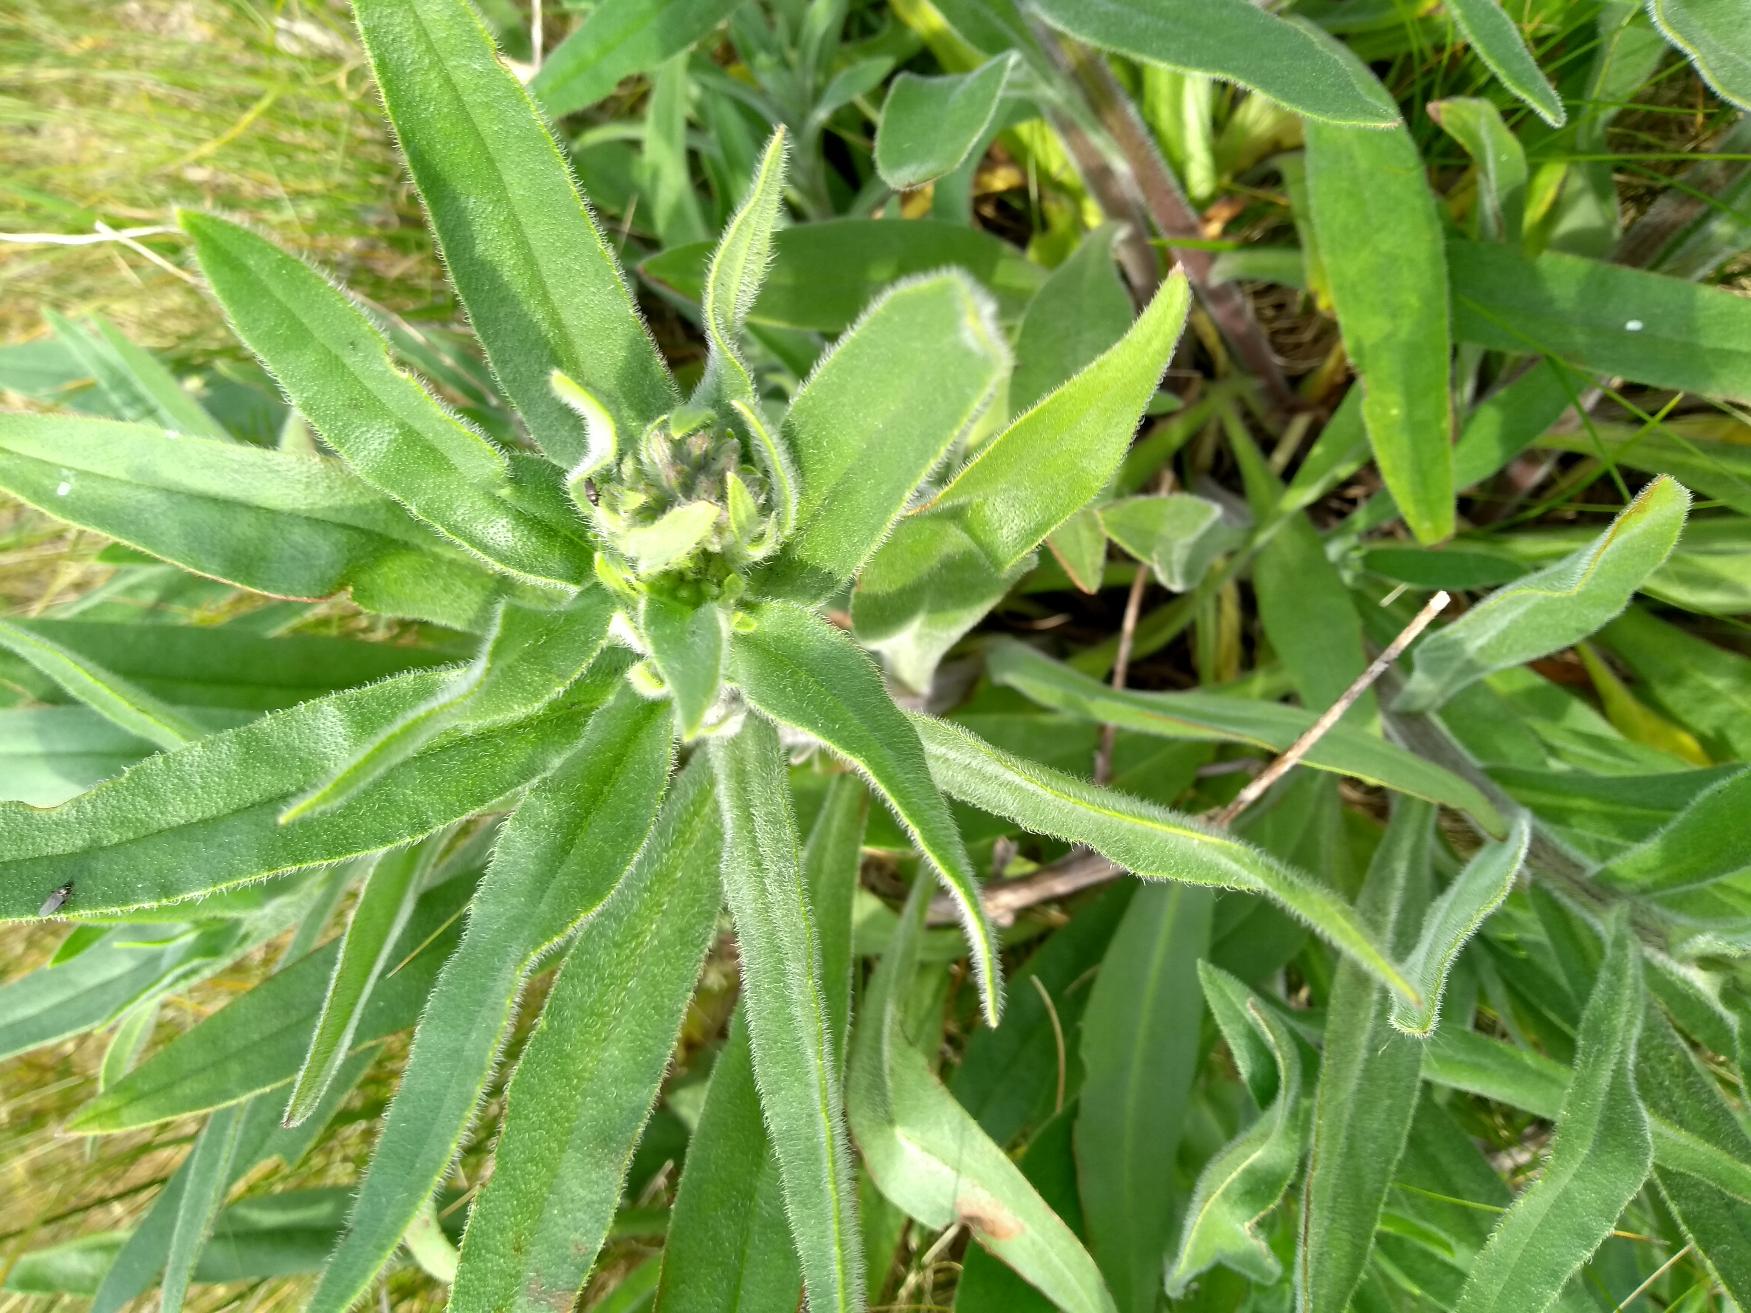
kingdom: Plantae
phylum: Tracheophyta
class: Magnoliopsida
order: Boraginales
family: Boraginaceae
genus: Anchusa
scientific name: Anchusa officinalis
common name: Læge-oksetunge
